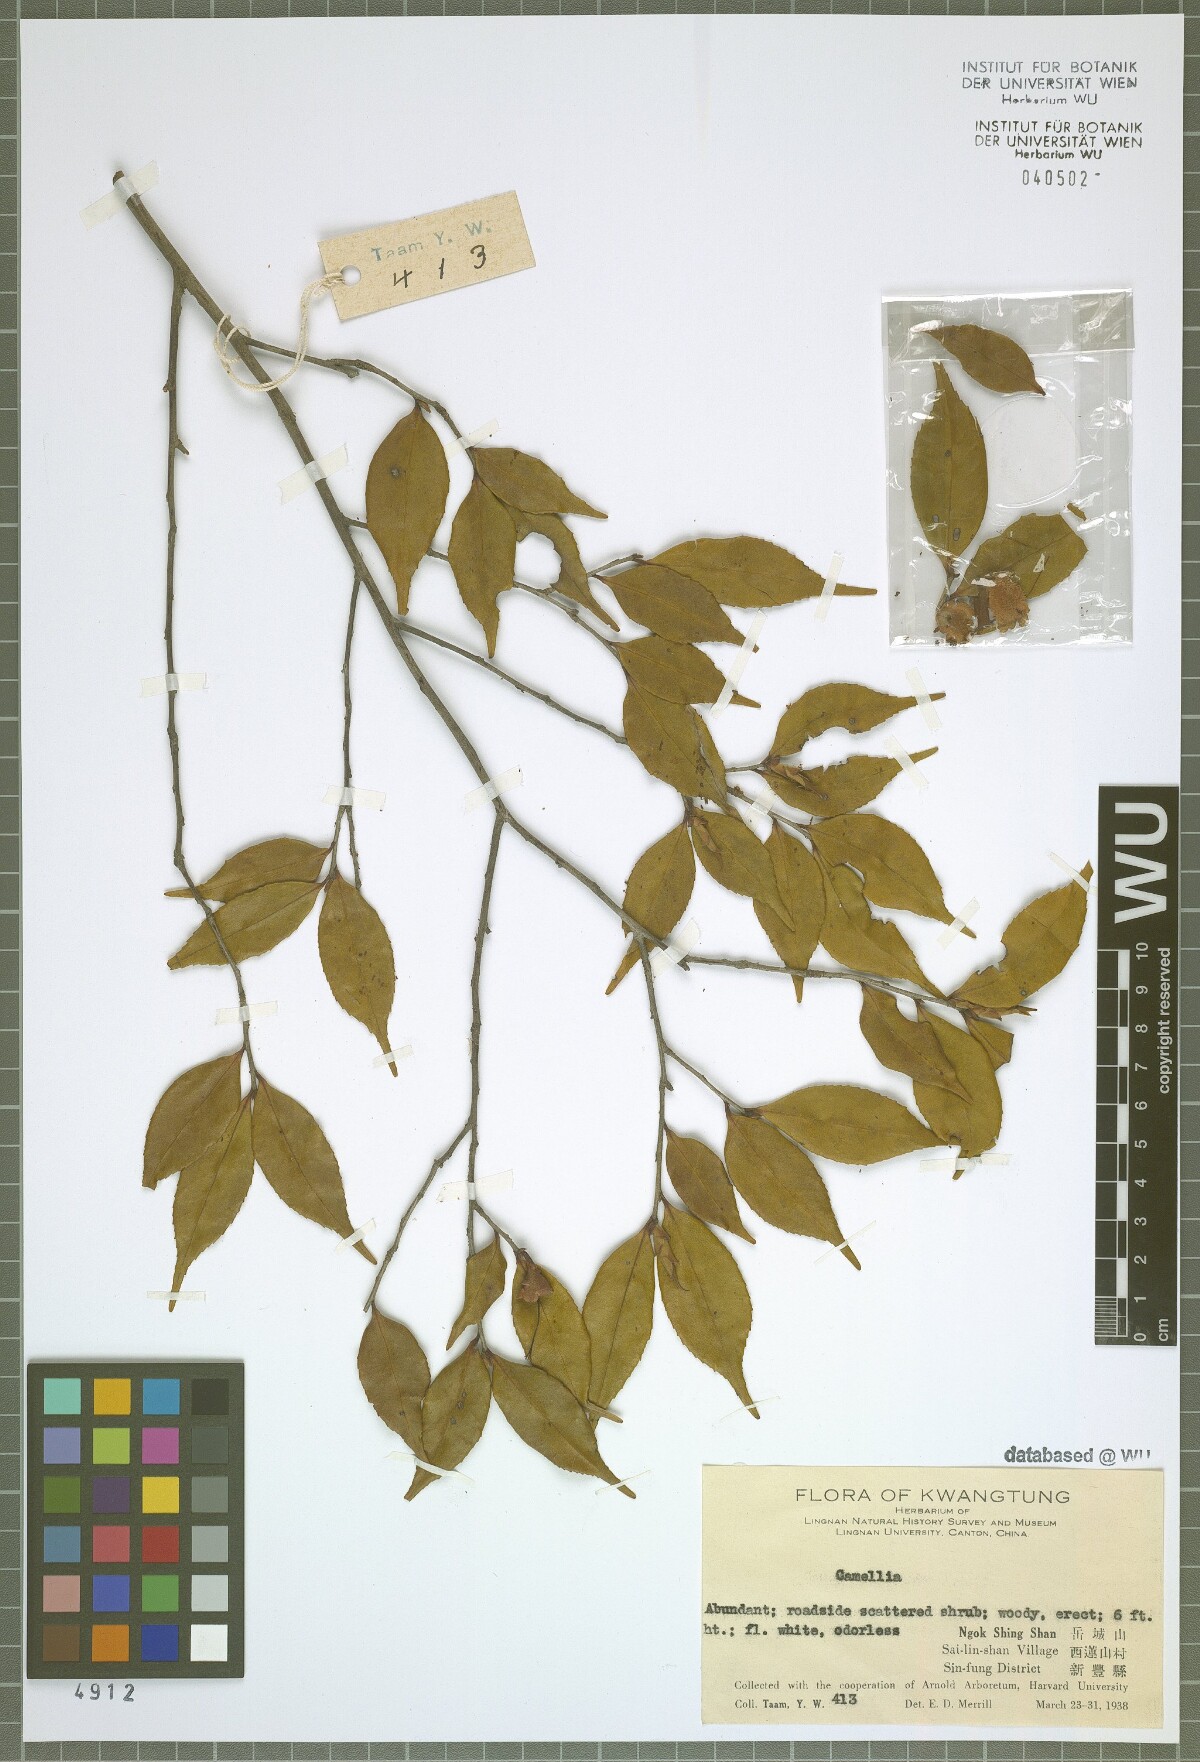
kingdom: Plantae
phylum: Tracheophyta
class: Magnoliopsida
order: Ericales
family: Theaceae
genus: Camellia
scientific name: Camellia
